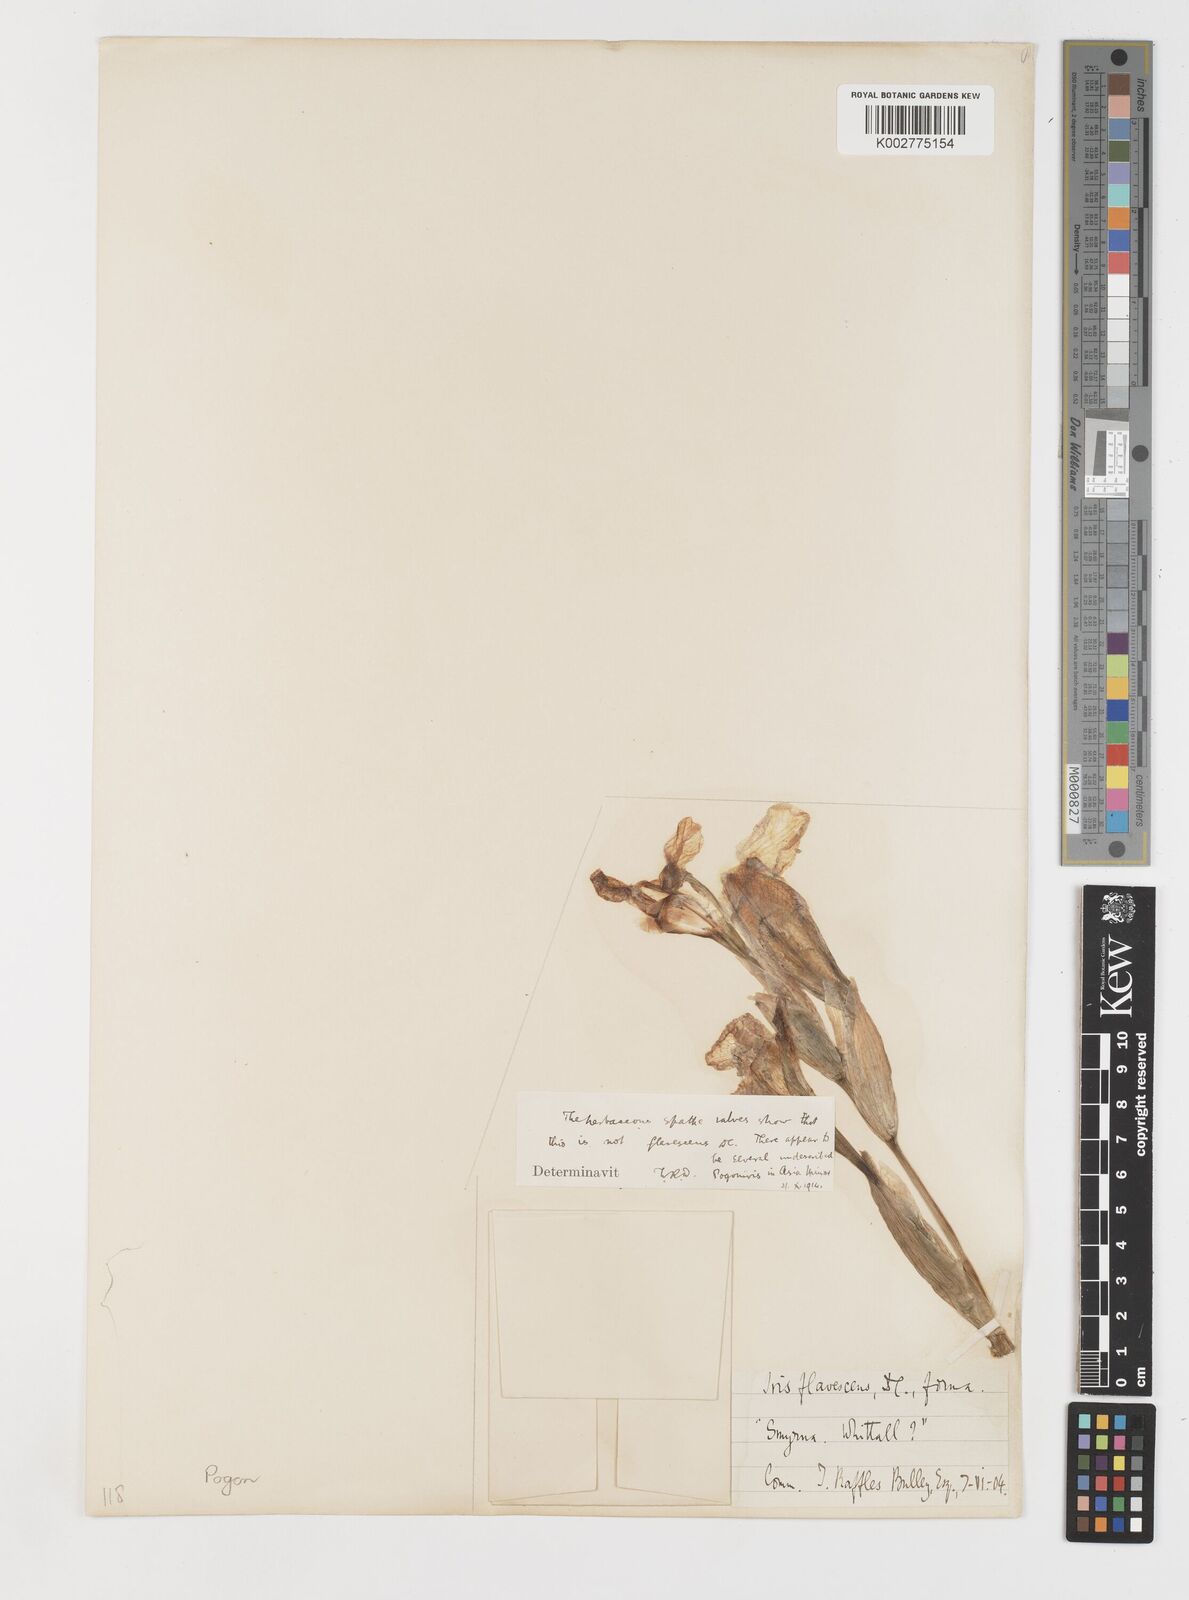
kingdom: Plantae
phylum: Tracheophyta
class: Liliopsida
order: Asparagales
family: Iridaceae
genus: Iris
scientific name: Iris schachtii
